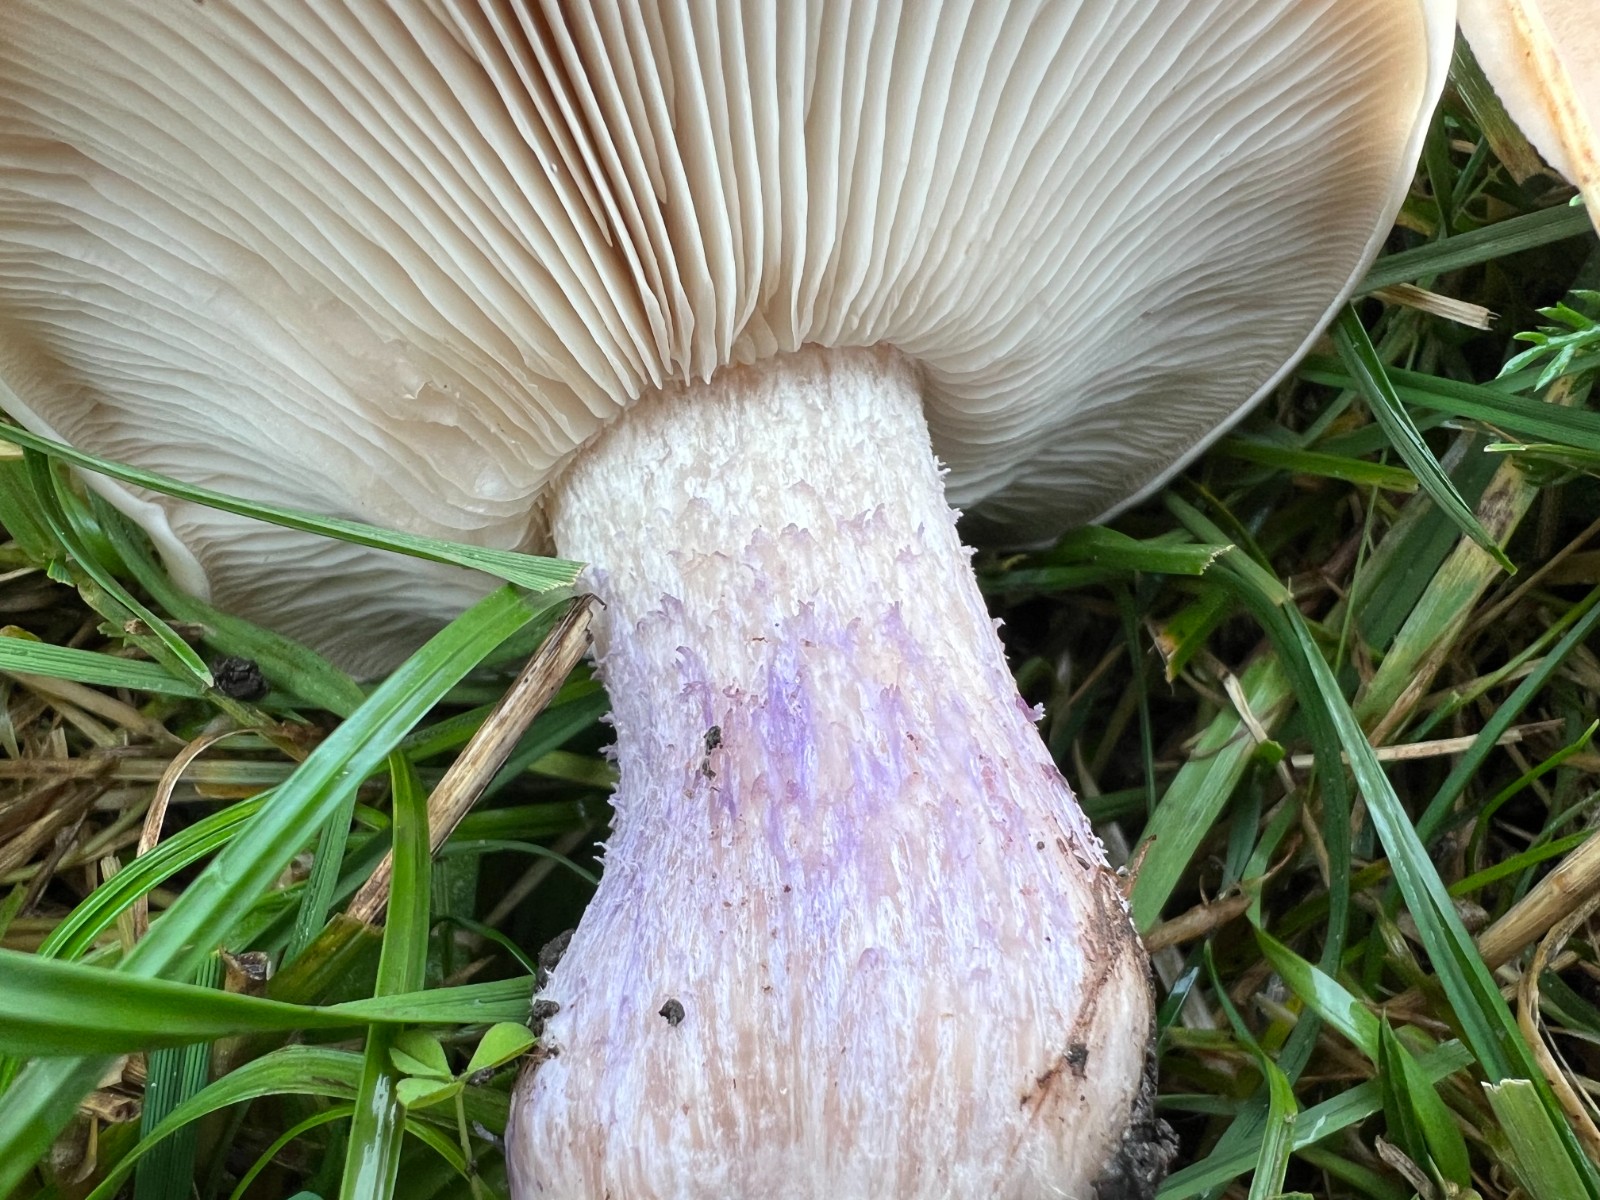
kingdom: Fungi
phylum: Basidiomycota
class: Agaricomycetes
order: Agaricales
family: Tricholomataceae
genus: Lepista
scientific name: Lepista personata
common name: bleg hekseringshat
